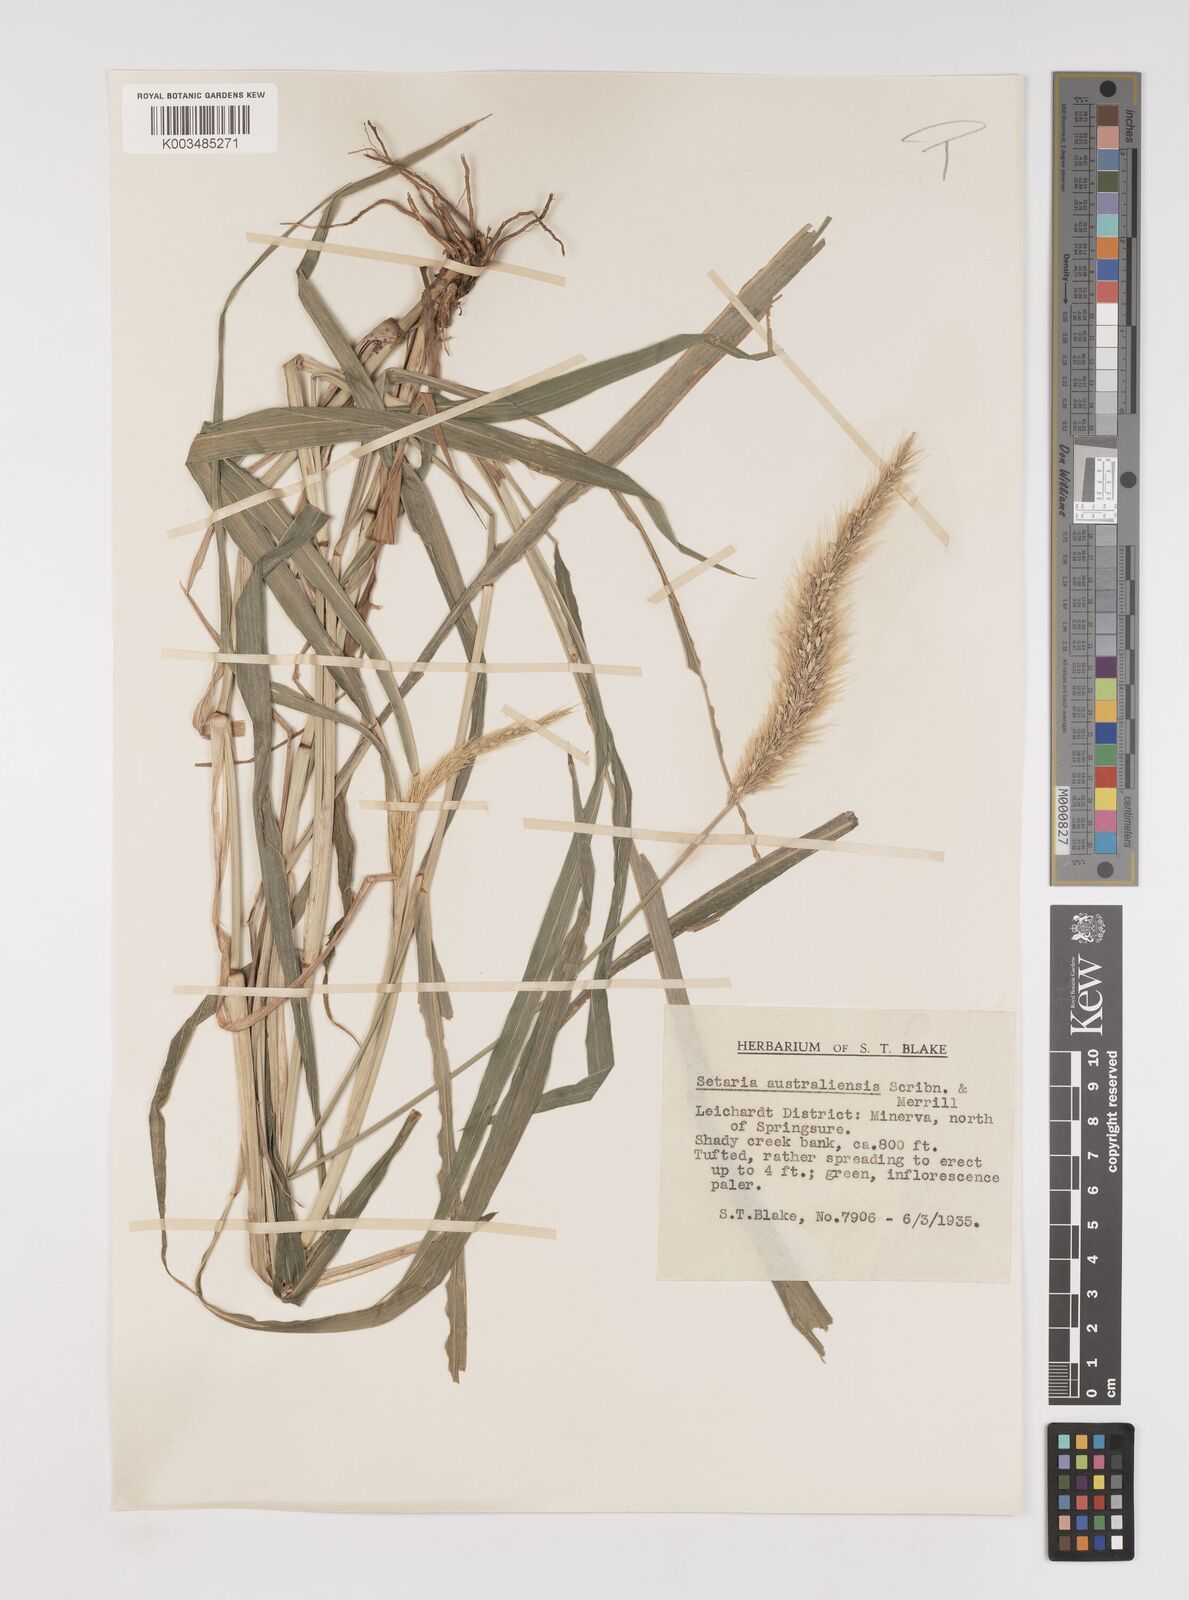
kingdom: Plantae
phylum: Tracheophyta
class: Liliopsida
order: Poales
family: Poaceae
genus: Setaria
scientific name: Setaria australiensis
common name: Scrub pigeon grass
